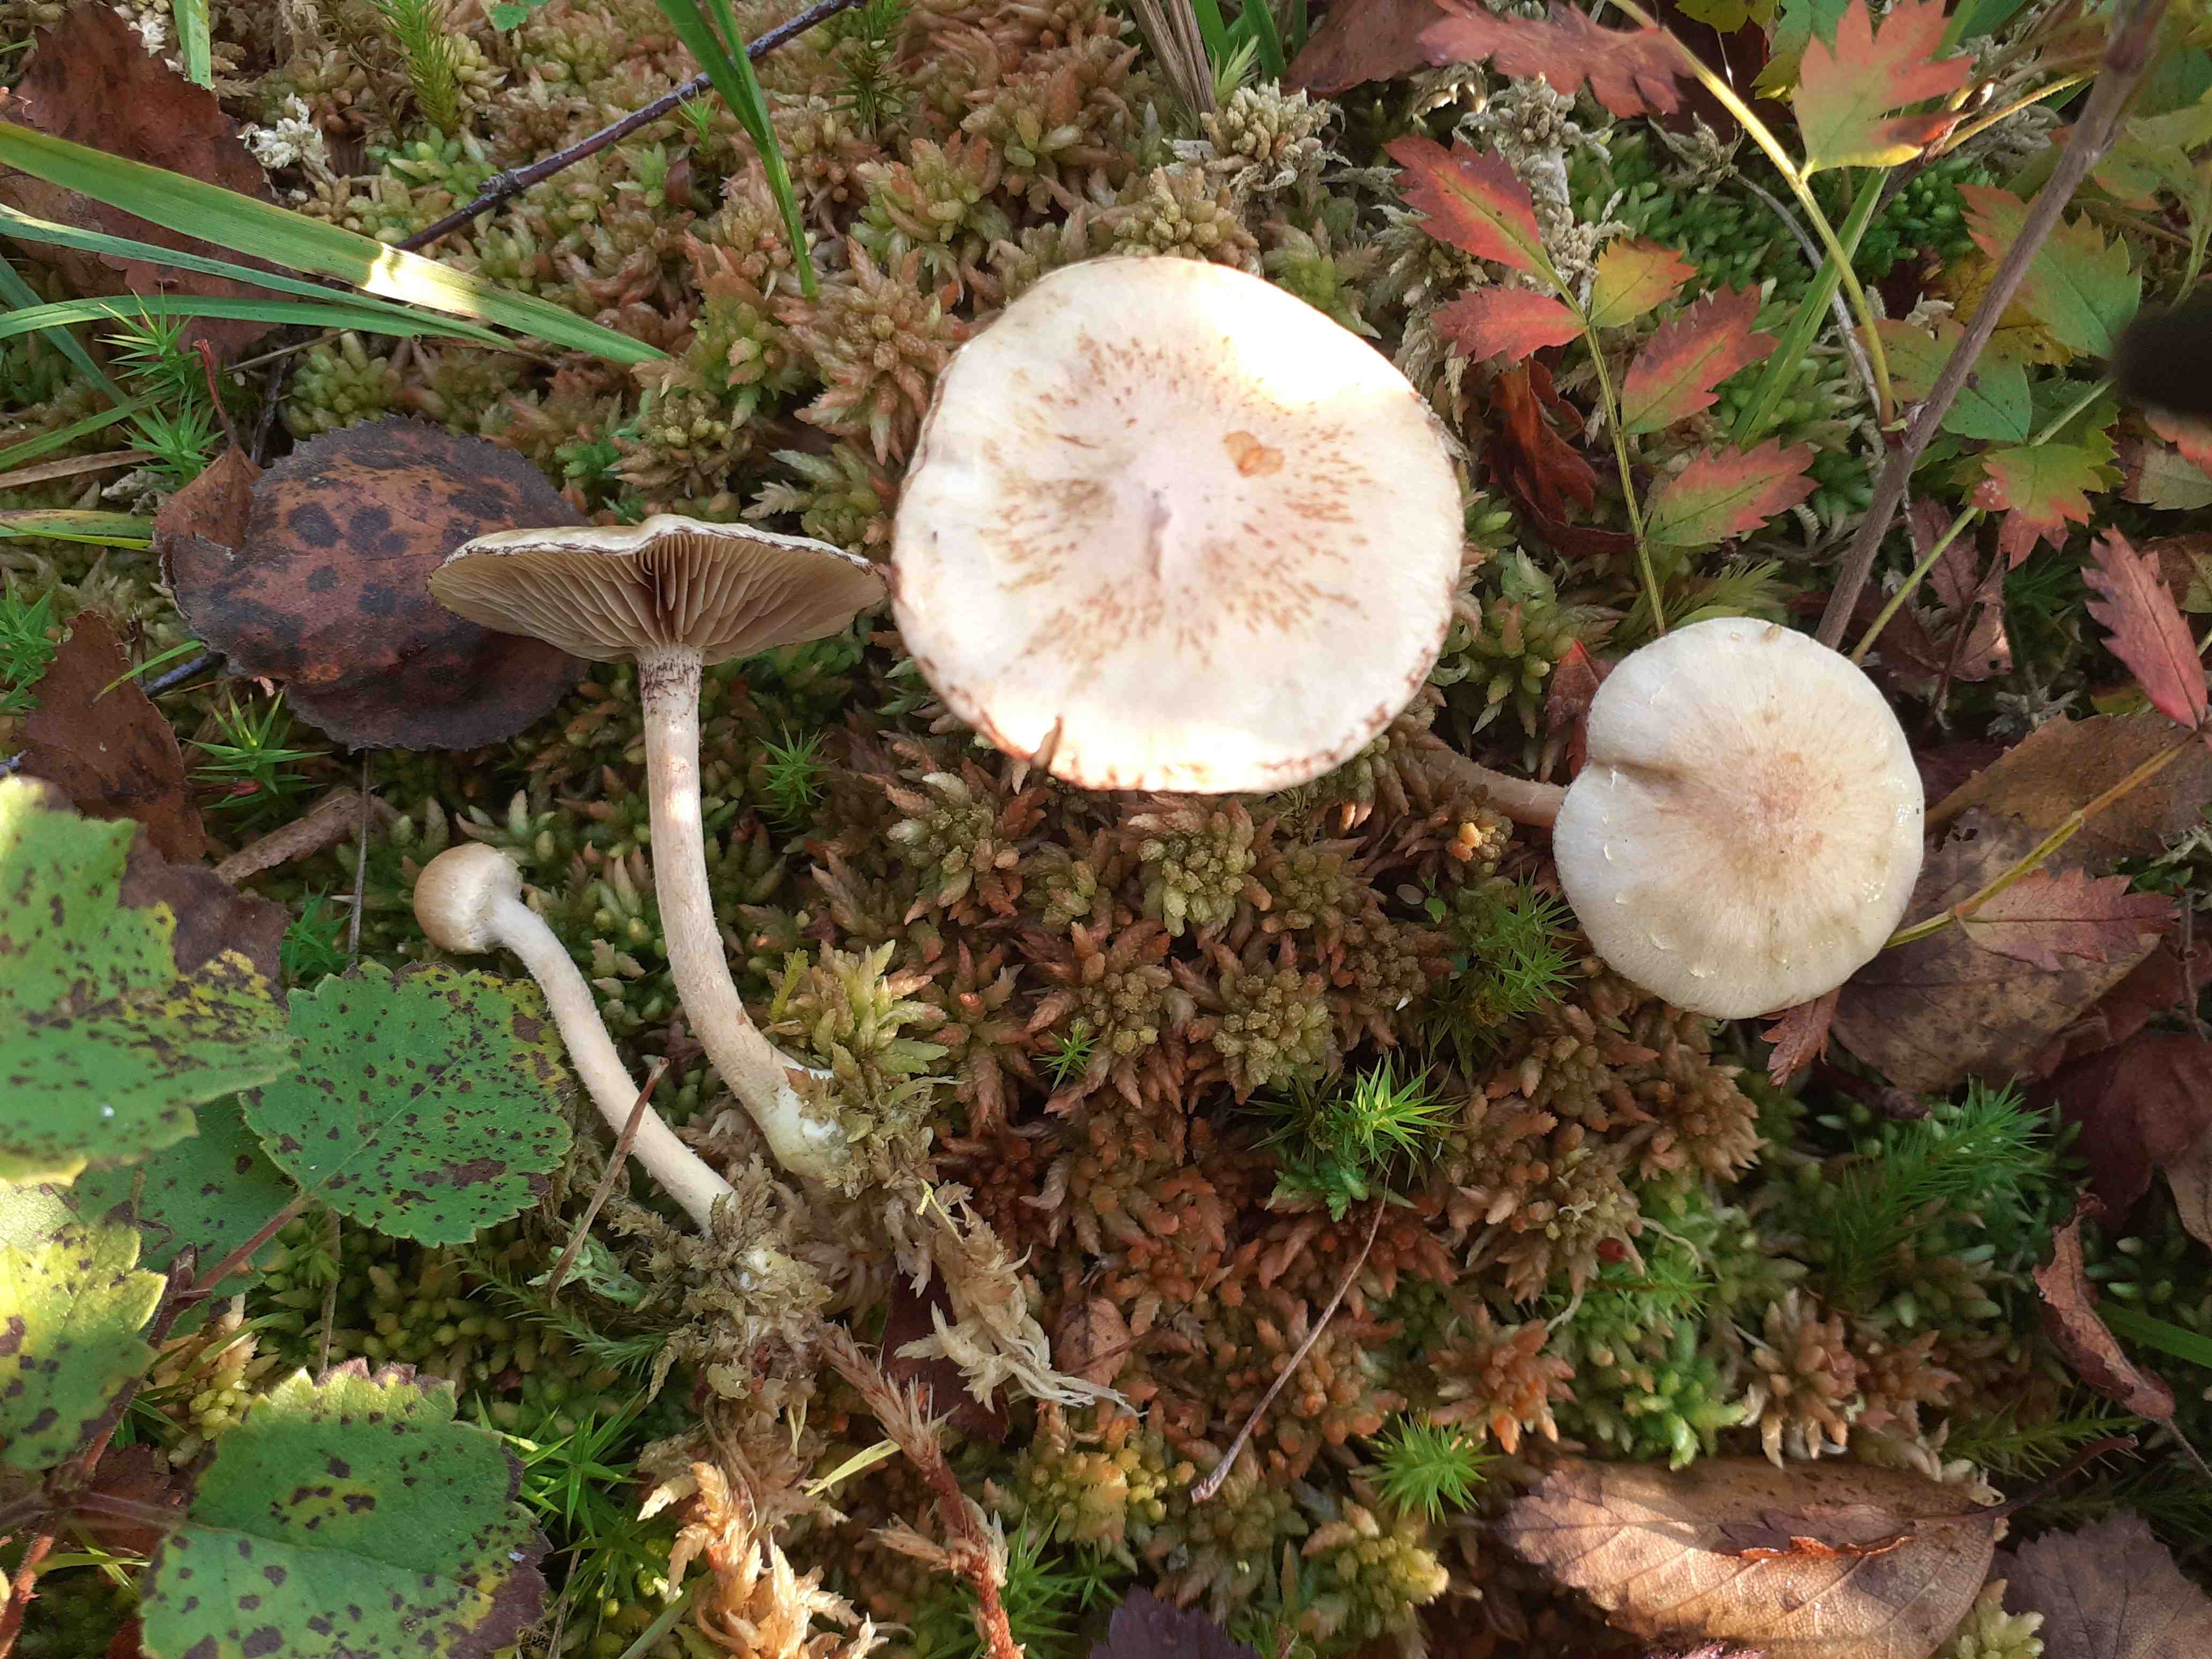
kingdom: Fungi
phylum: Basidiomycota
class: Agaricomycetes
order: Agaricales
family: Strophariaceae
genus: Pholiota
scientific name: Pholiota henningsii
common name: tørve-skælhat
